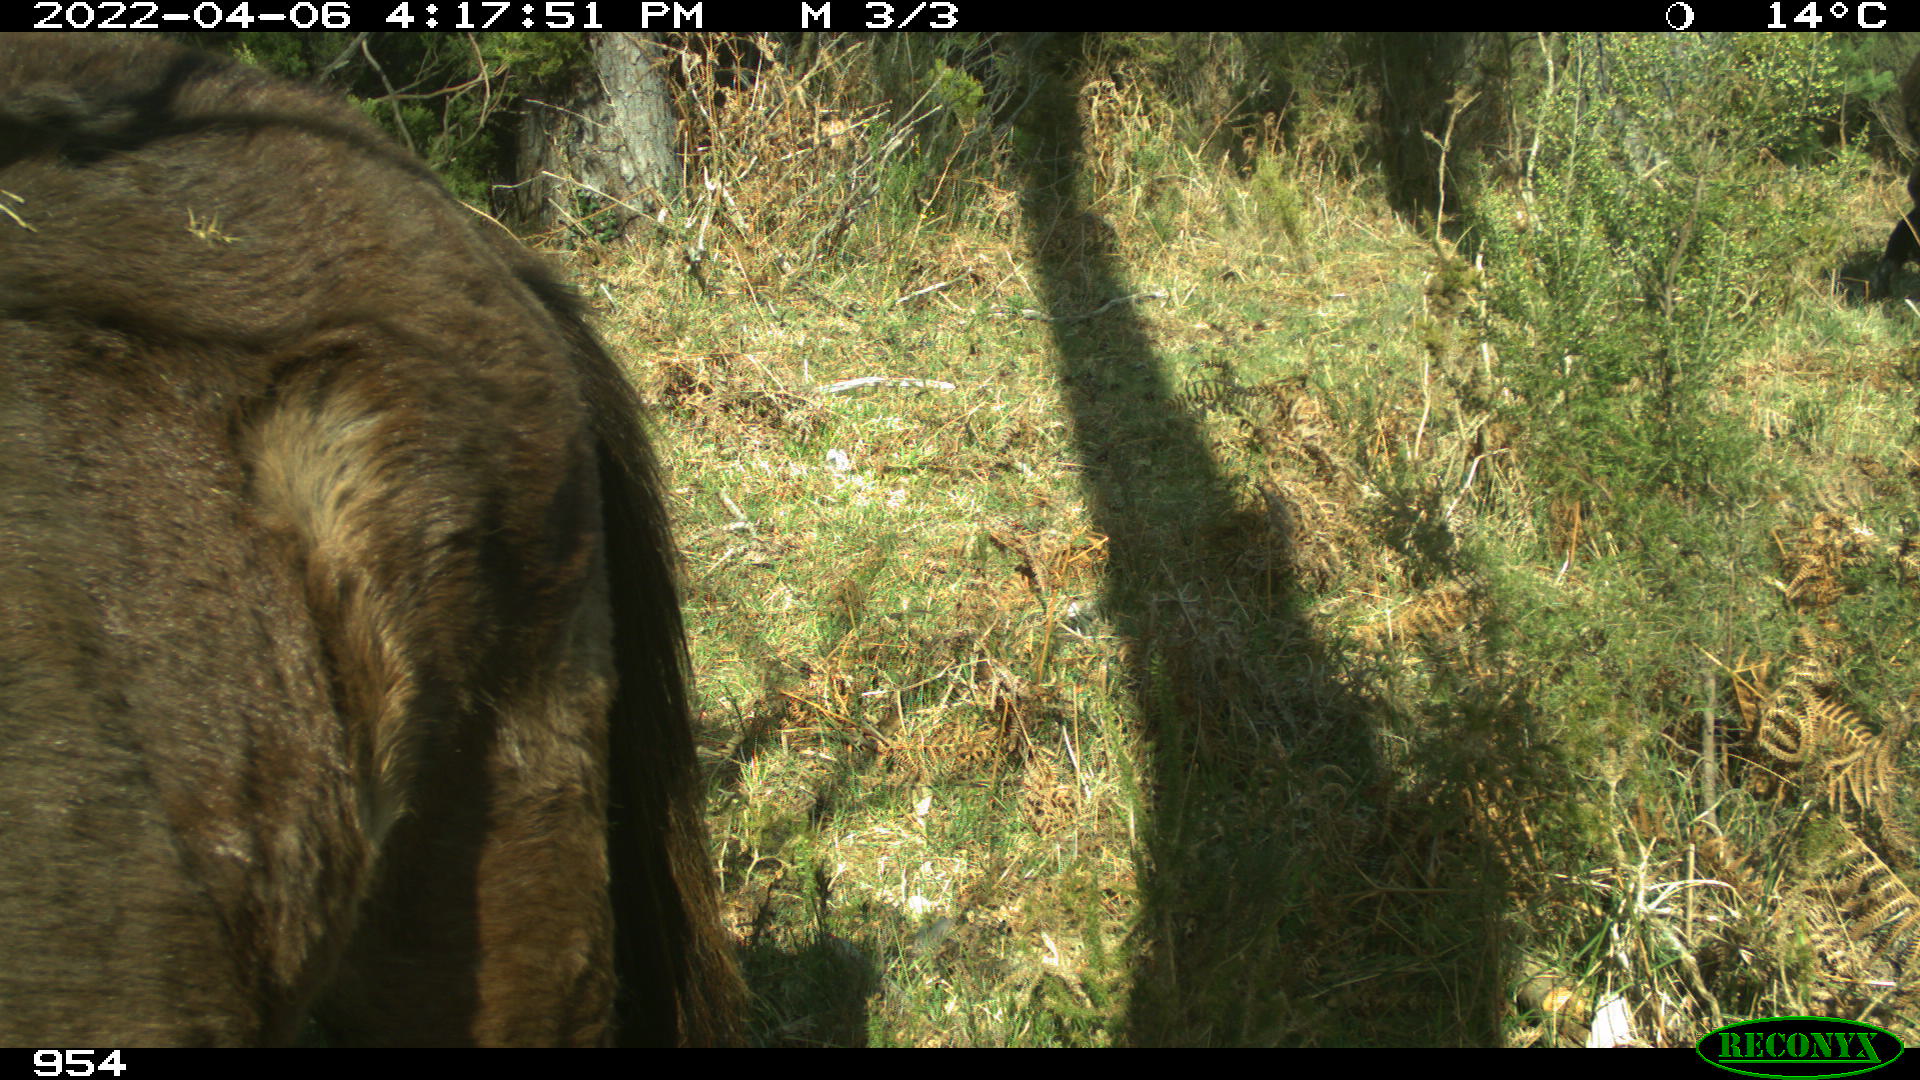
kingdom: Animalia
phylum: Chordata
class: Mammalia
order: Perissodactyla
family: Equidae
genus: Equus
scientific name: Equus caballus
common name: Horse
